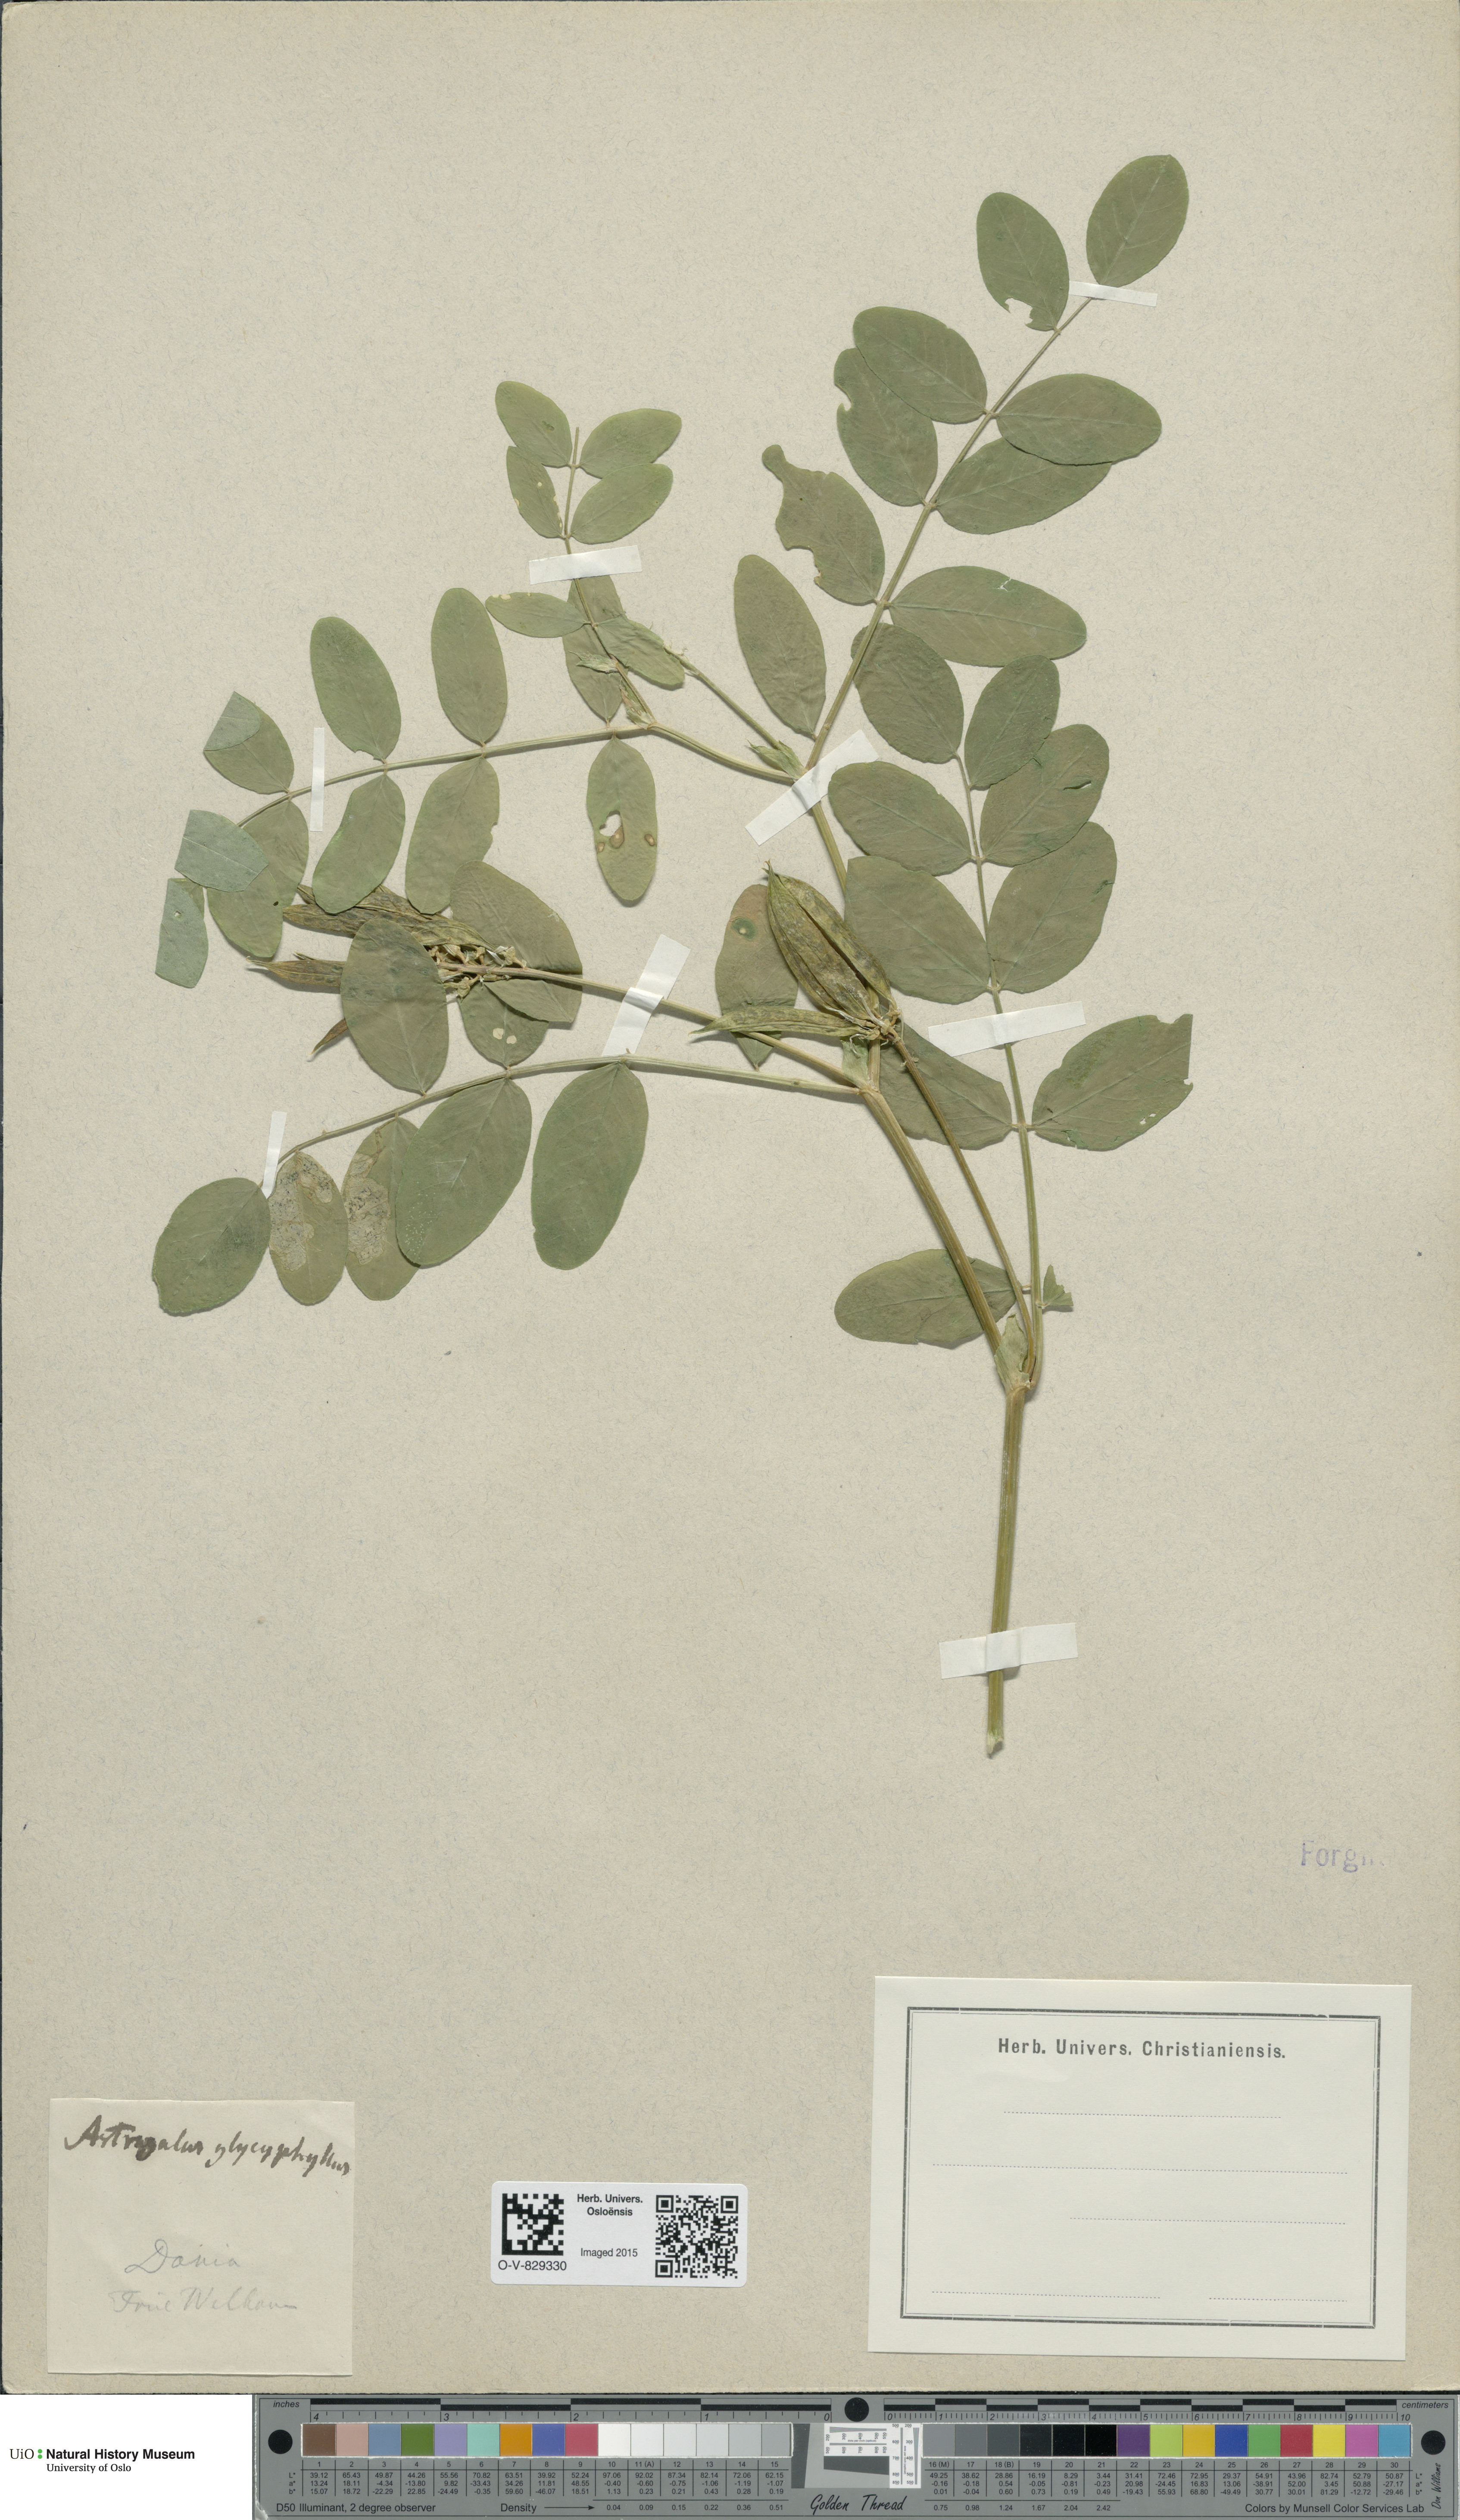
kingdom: Plantae
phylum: Tracheophyta
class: Magnoliopsida
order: Fabales
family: Fabaceae
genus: Astragalus
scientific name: Astragalus glycyphyllos
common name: Wild liquorice
